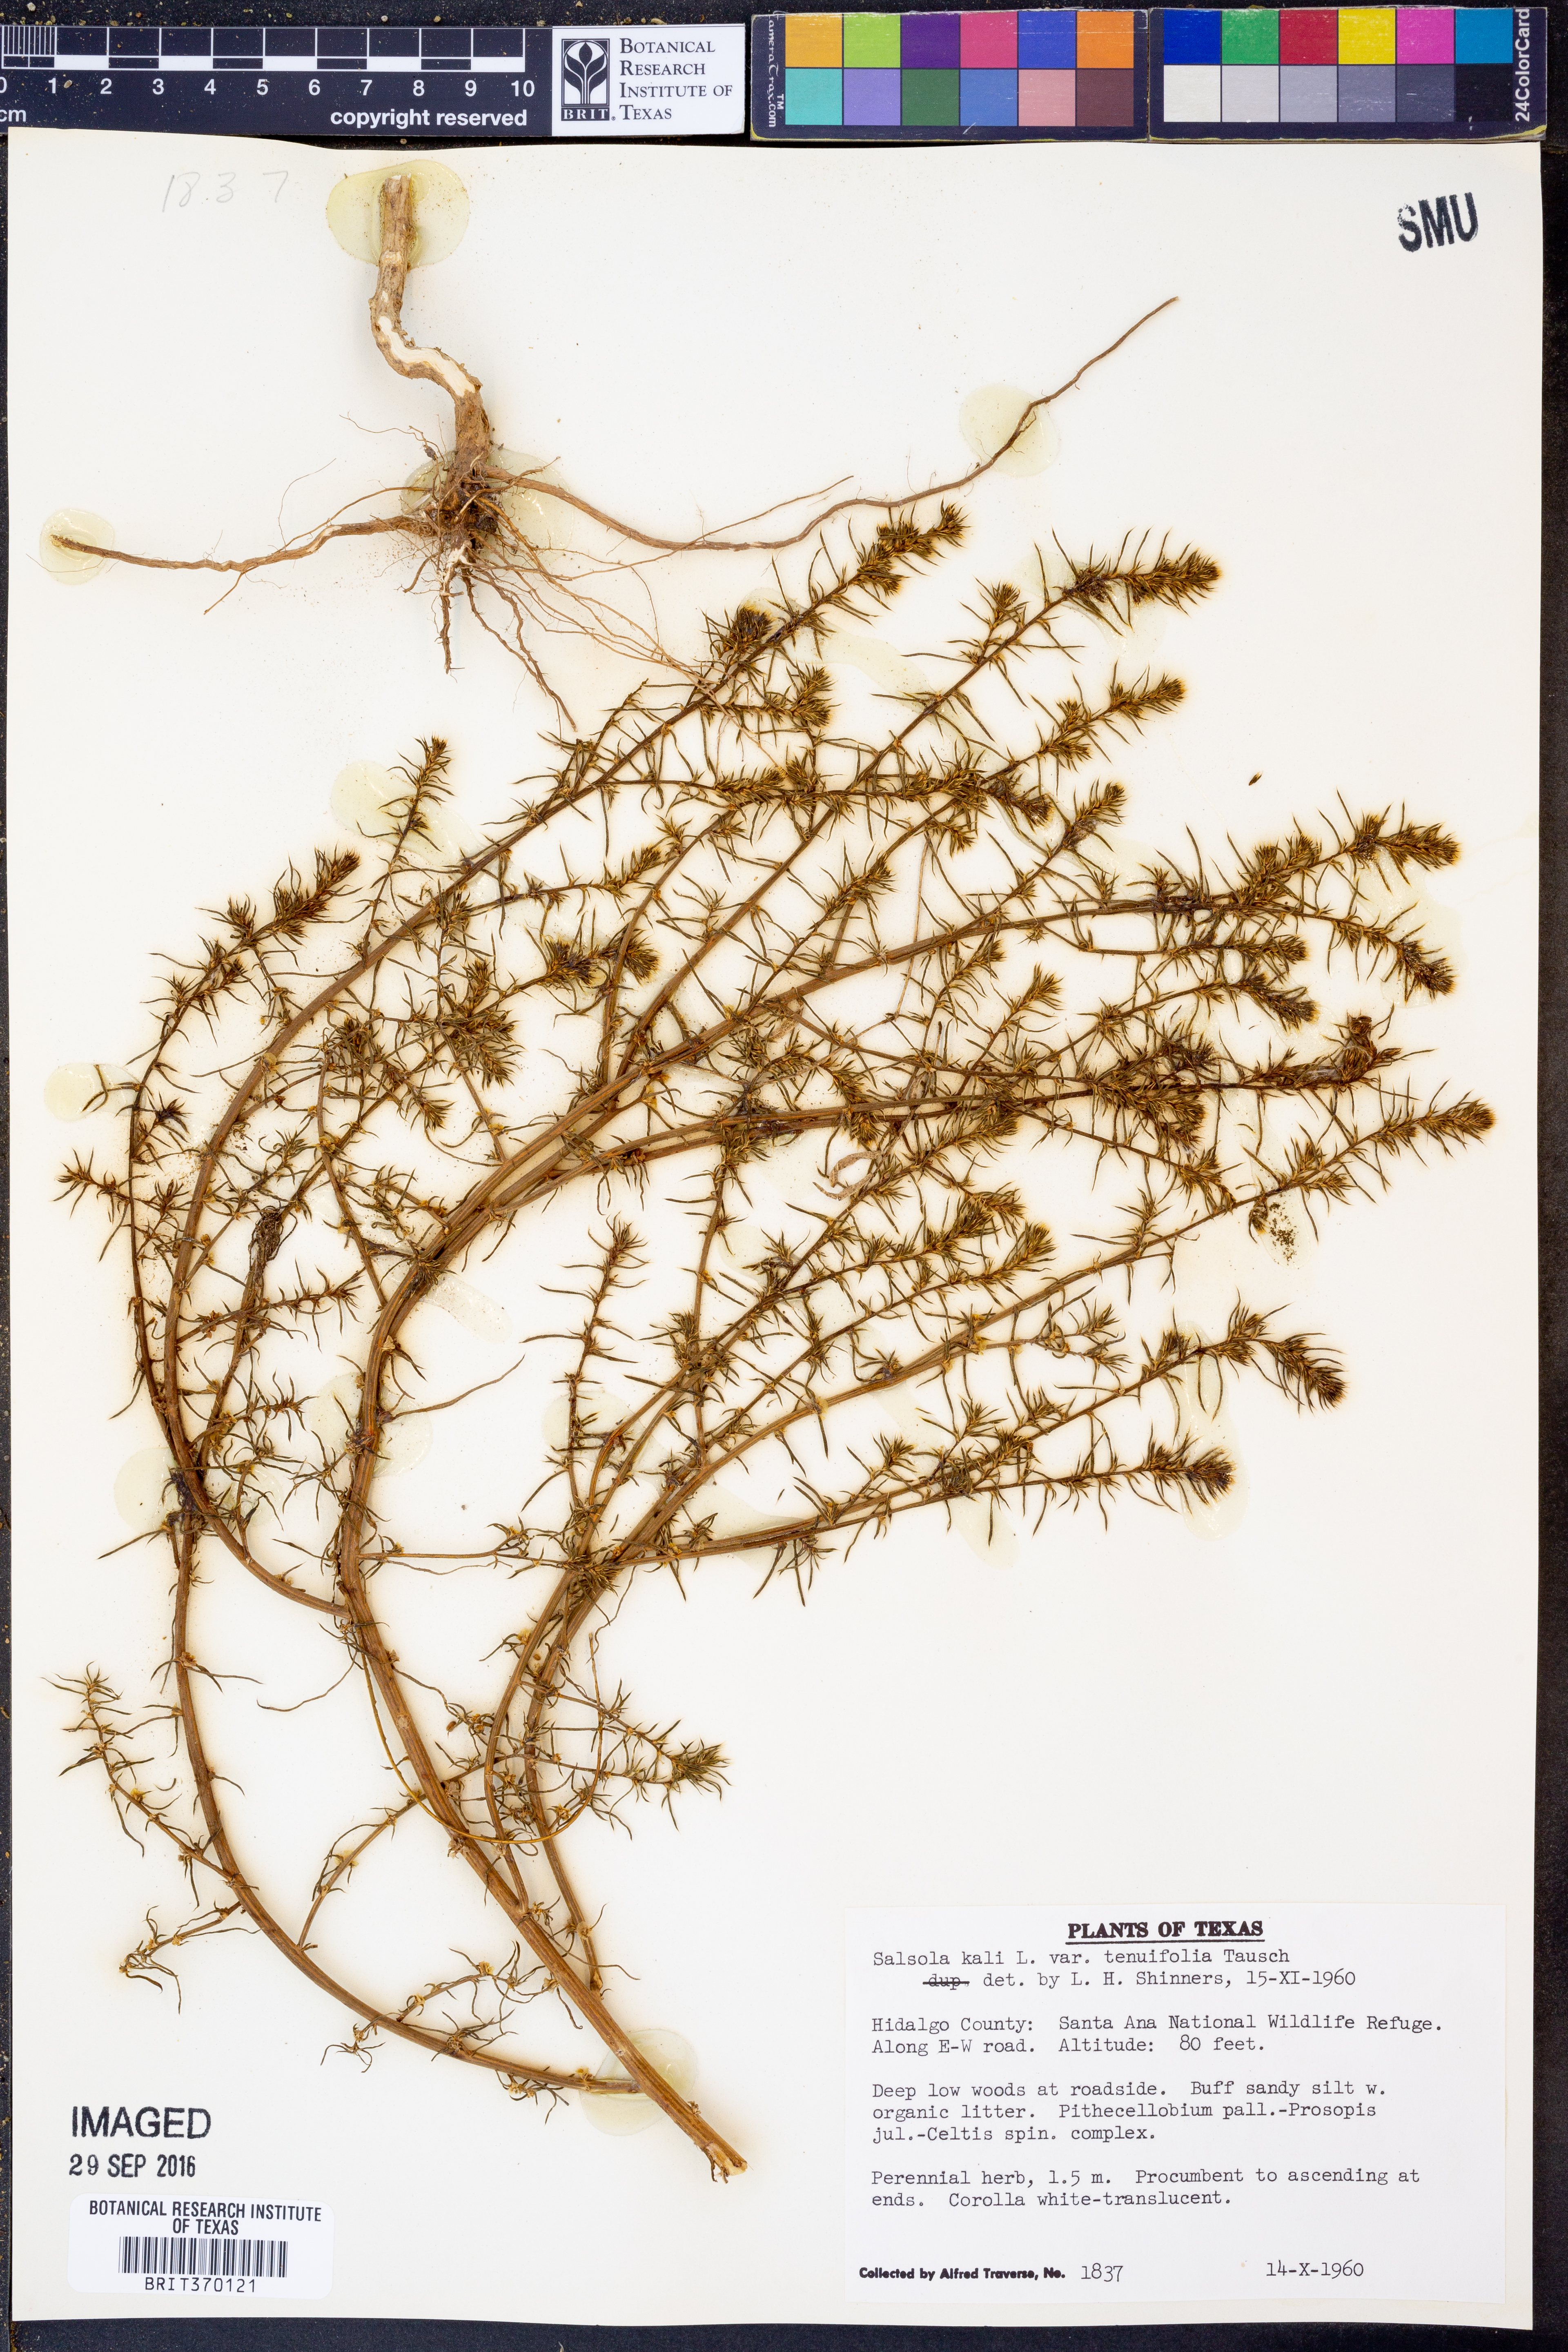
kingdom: Plantae
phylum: Tracheophyta
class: Magnoliopsida
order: Caryophyllales
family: Amaranthaceae
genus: Salsola
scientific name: Salsola tragus
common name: Prickly russian thistle
